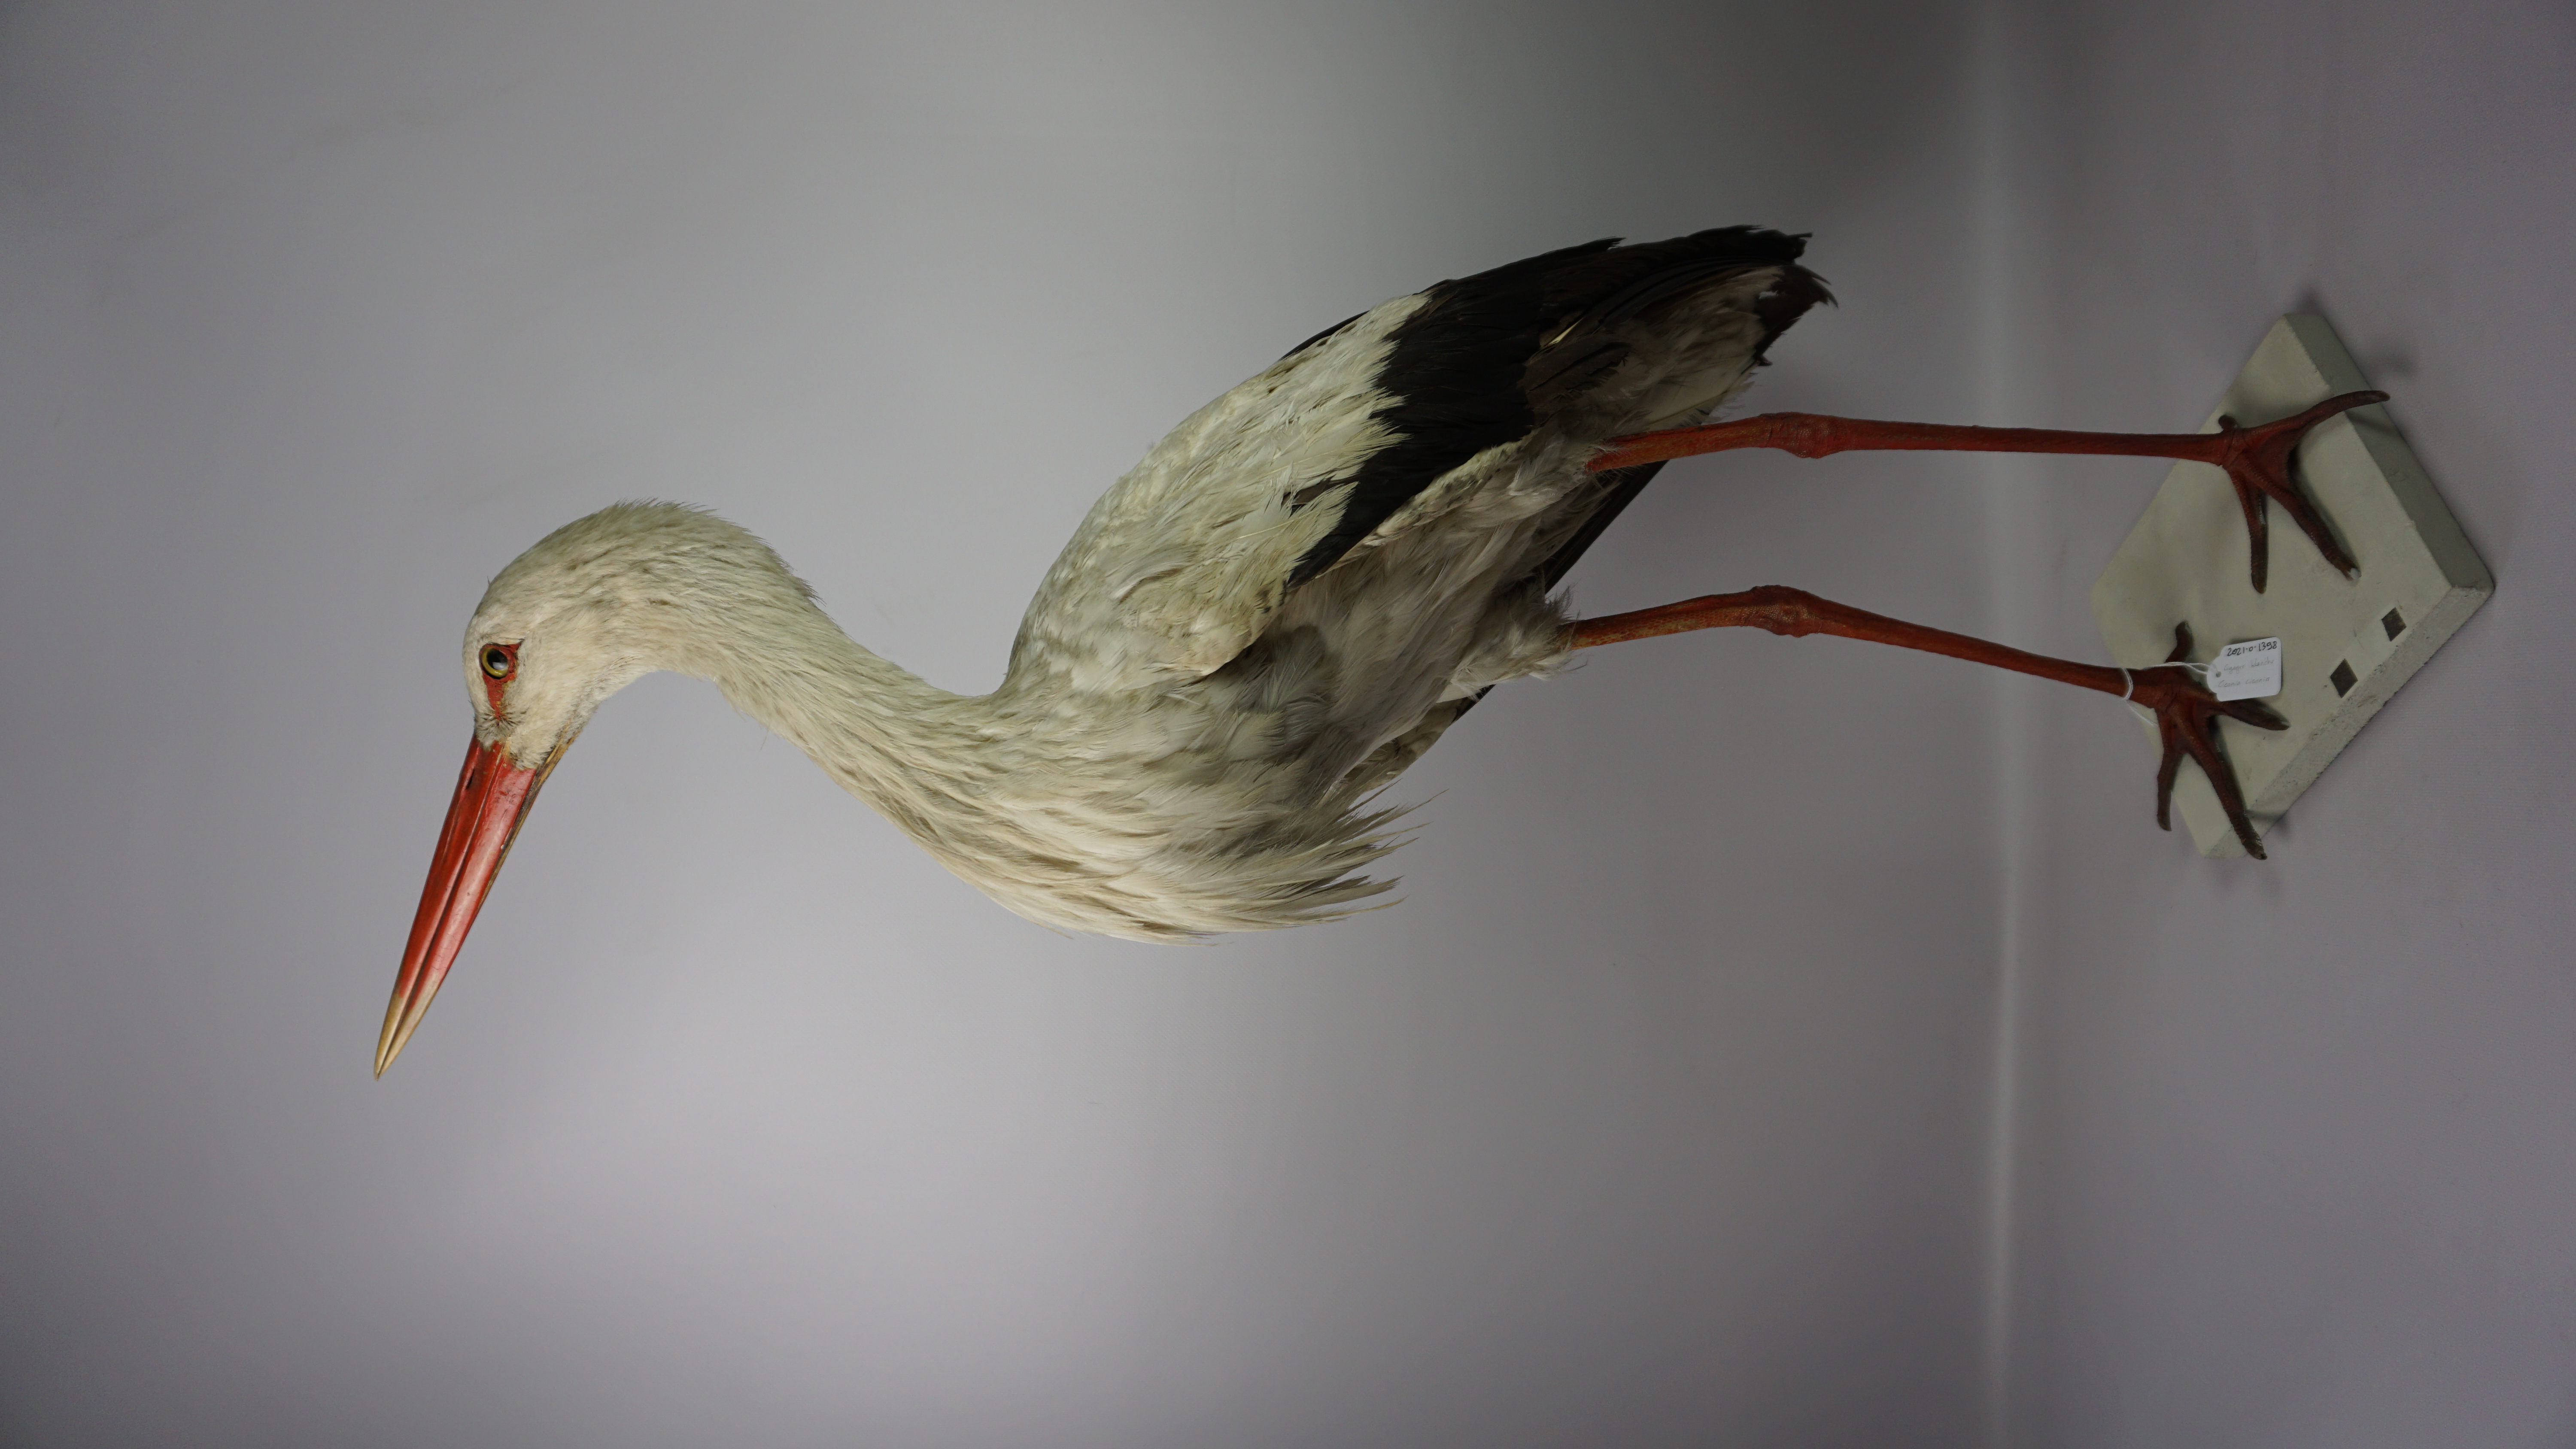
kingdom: Animalia
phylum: Chordata
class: Aves
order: Ciconiiformes
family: Ciconiidae
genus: Ciconia
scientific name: Ciconia ciconia
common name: White stork
